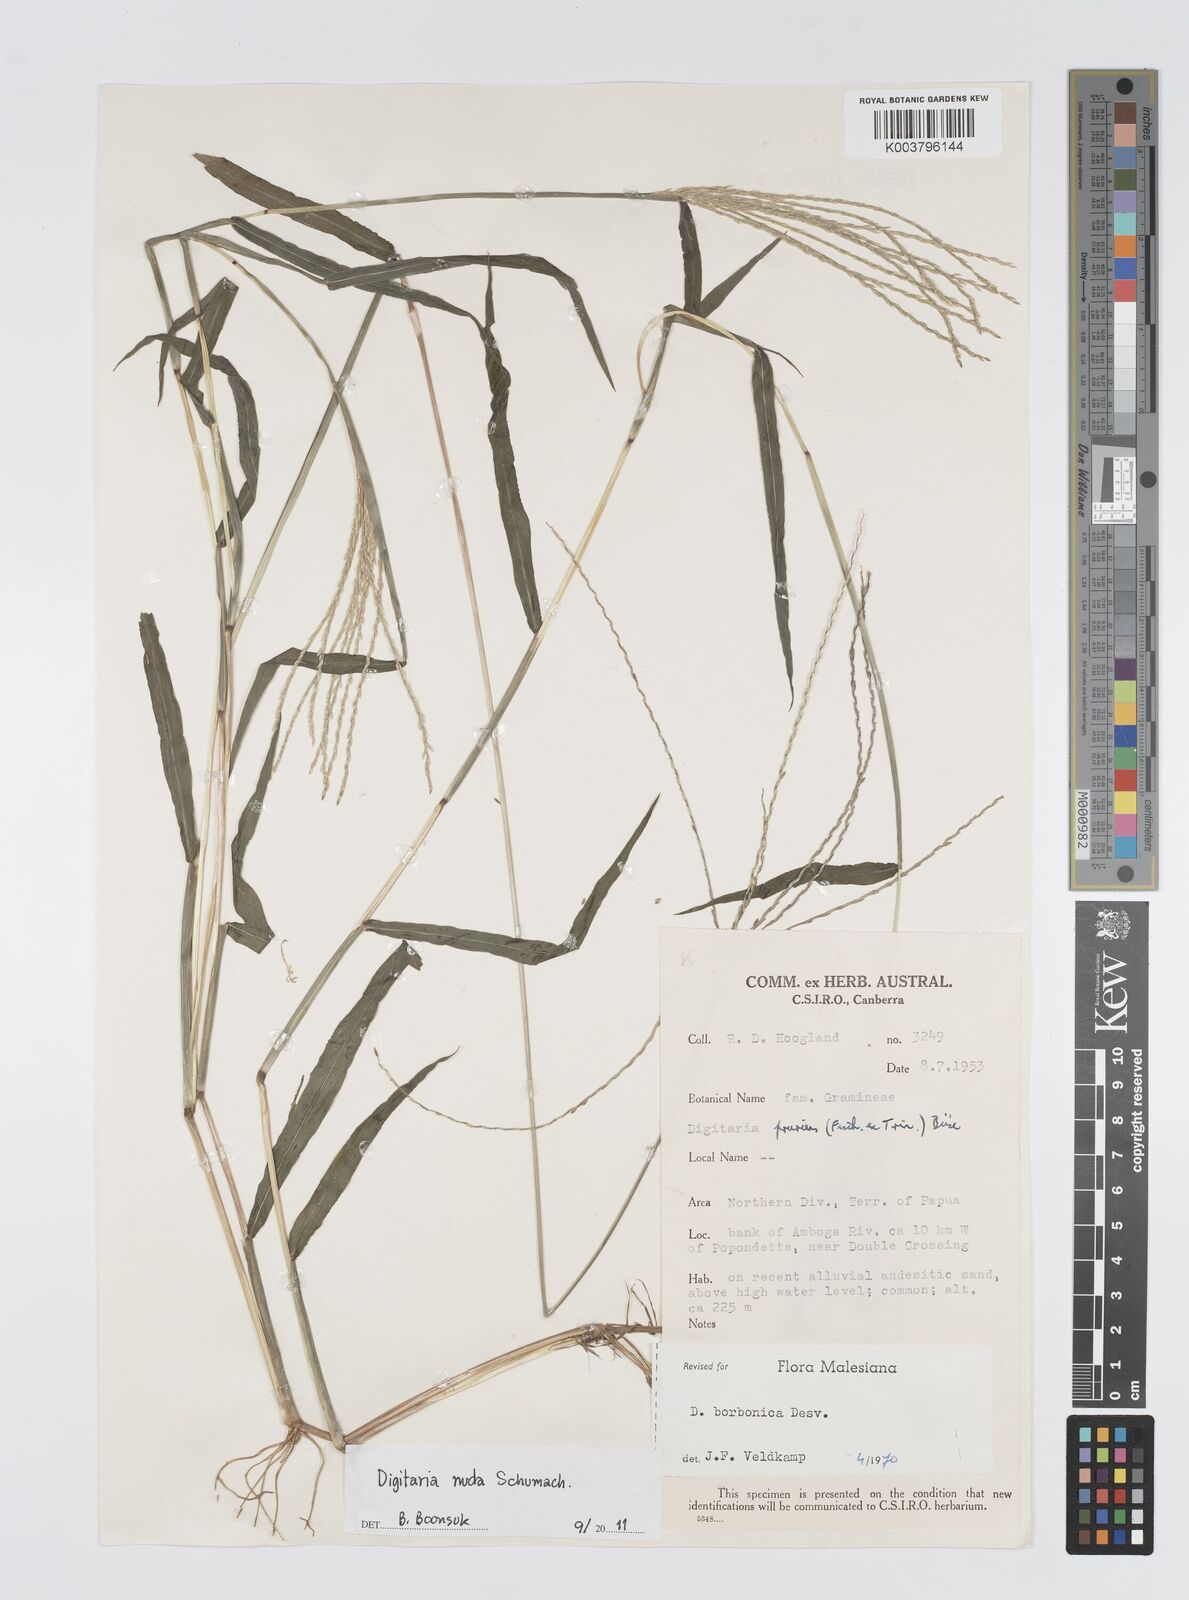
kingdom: Plantae
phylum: Tracheophyta
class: Liliopsida
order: Poales
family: Poaceae
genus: Digitaria
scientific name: Digitaria nuda
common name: Naked crabgrass
